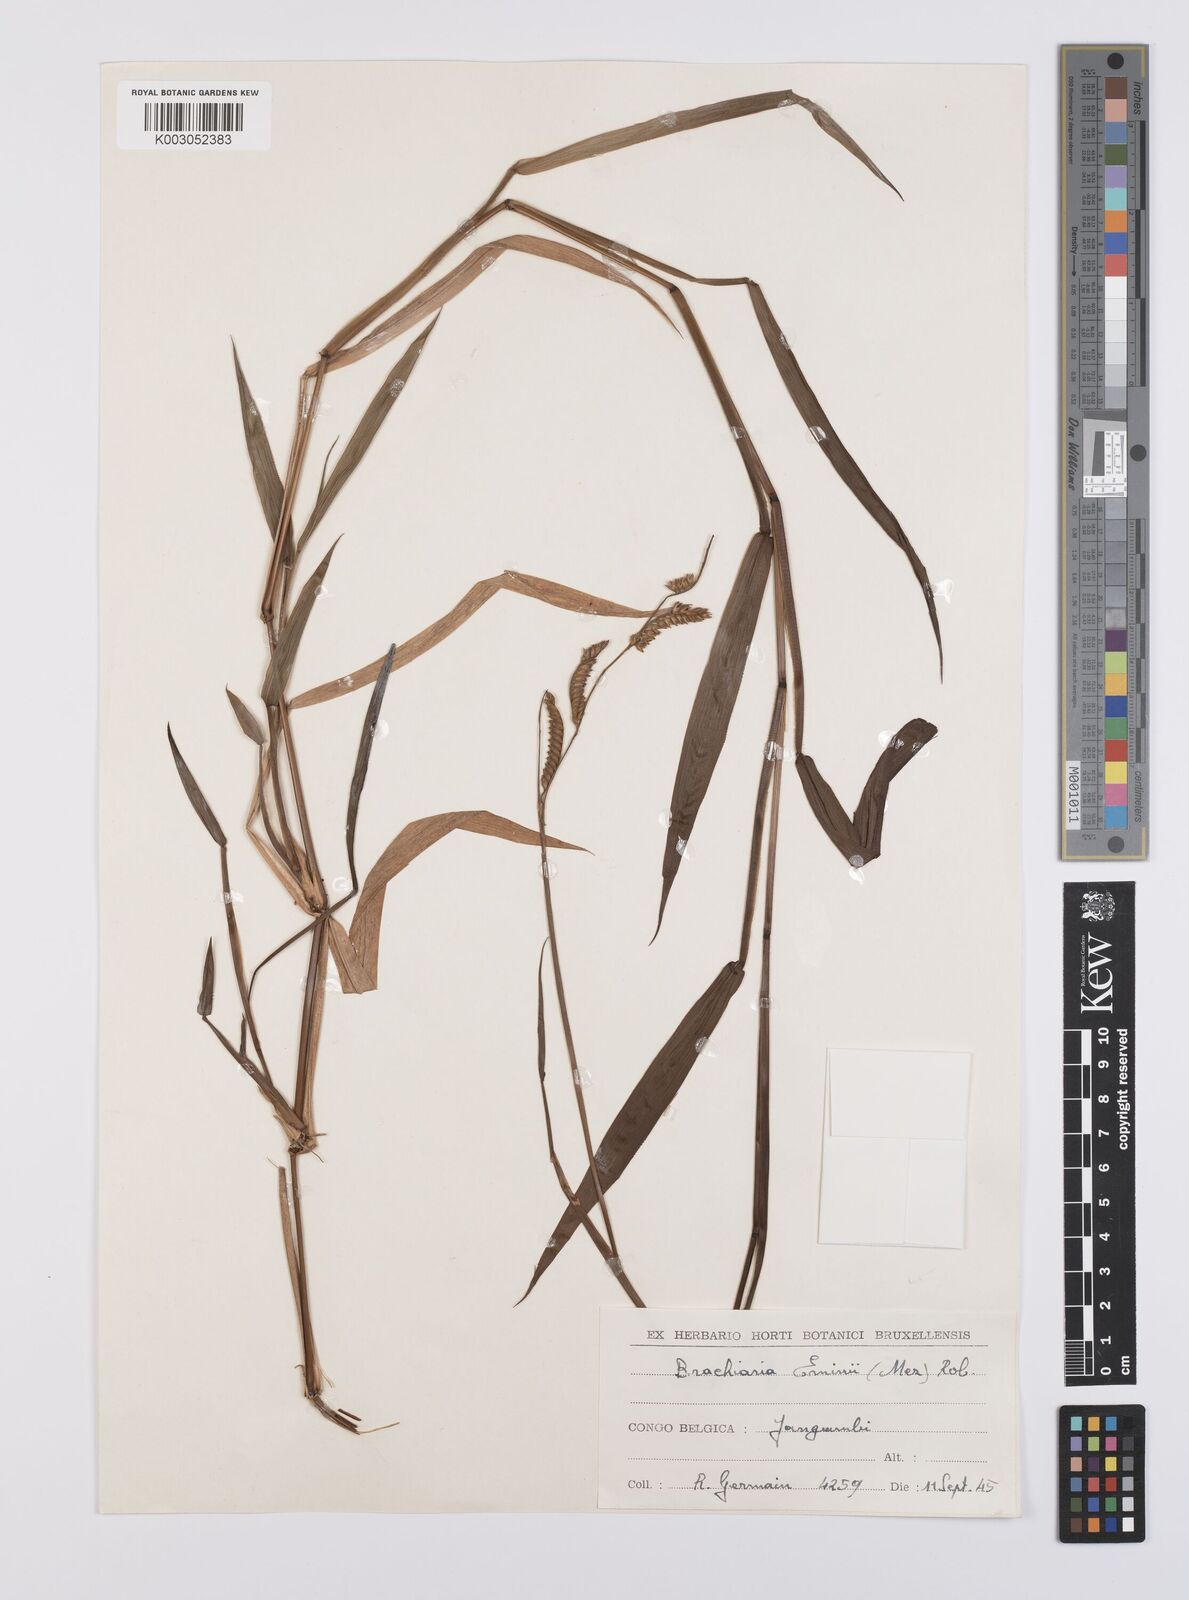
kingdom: Plantae
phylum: Tracheophyta
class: Liliopsida
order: Poales
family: Poaceae
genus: Urochloa
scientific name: Urochloa eminii
